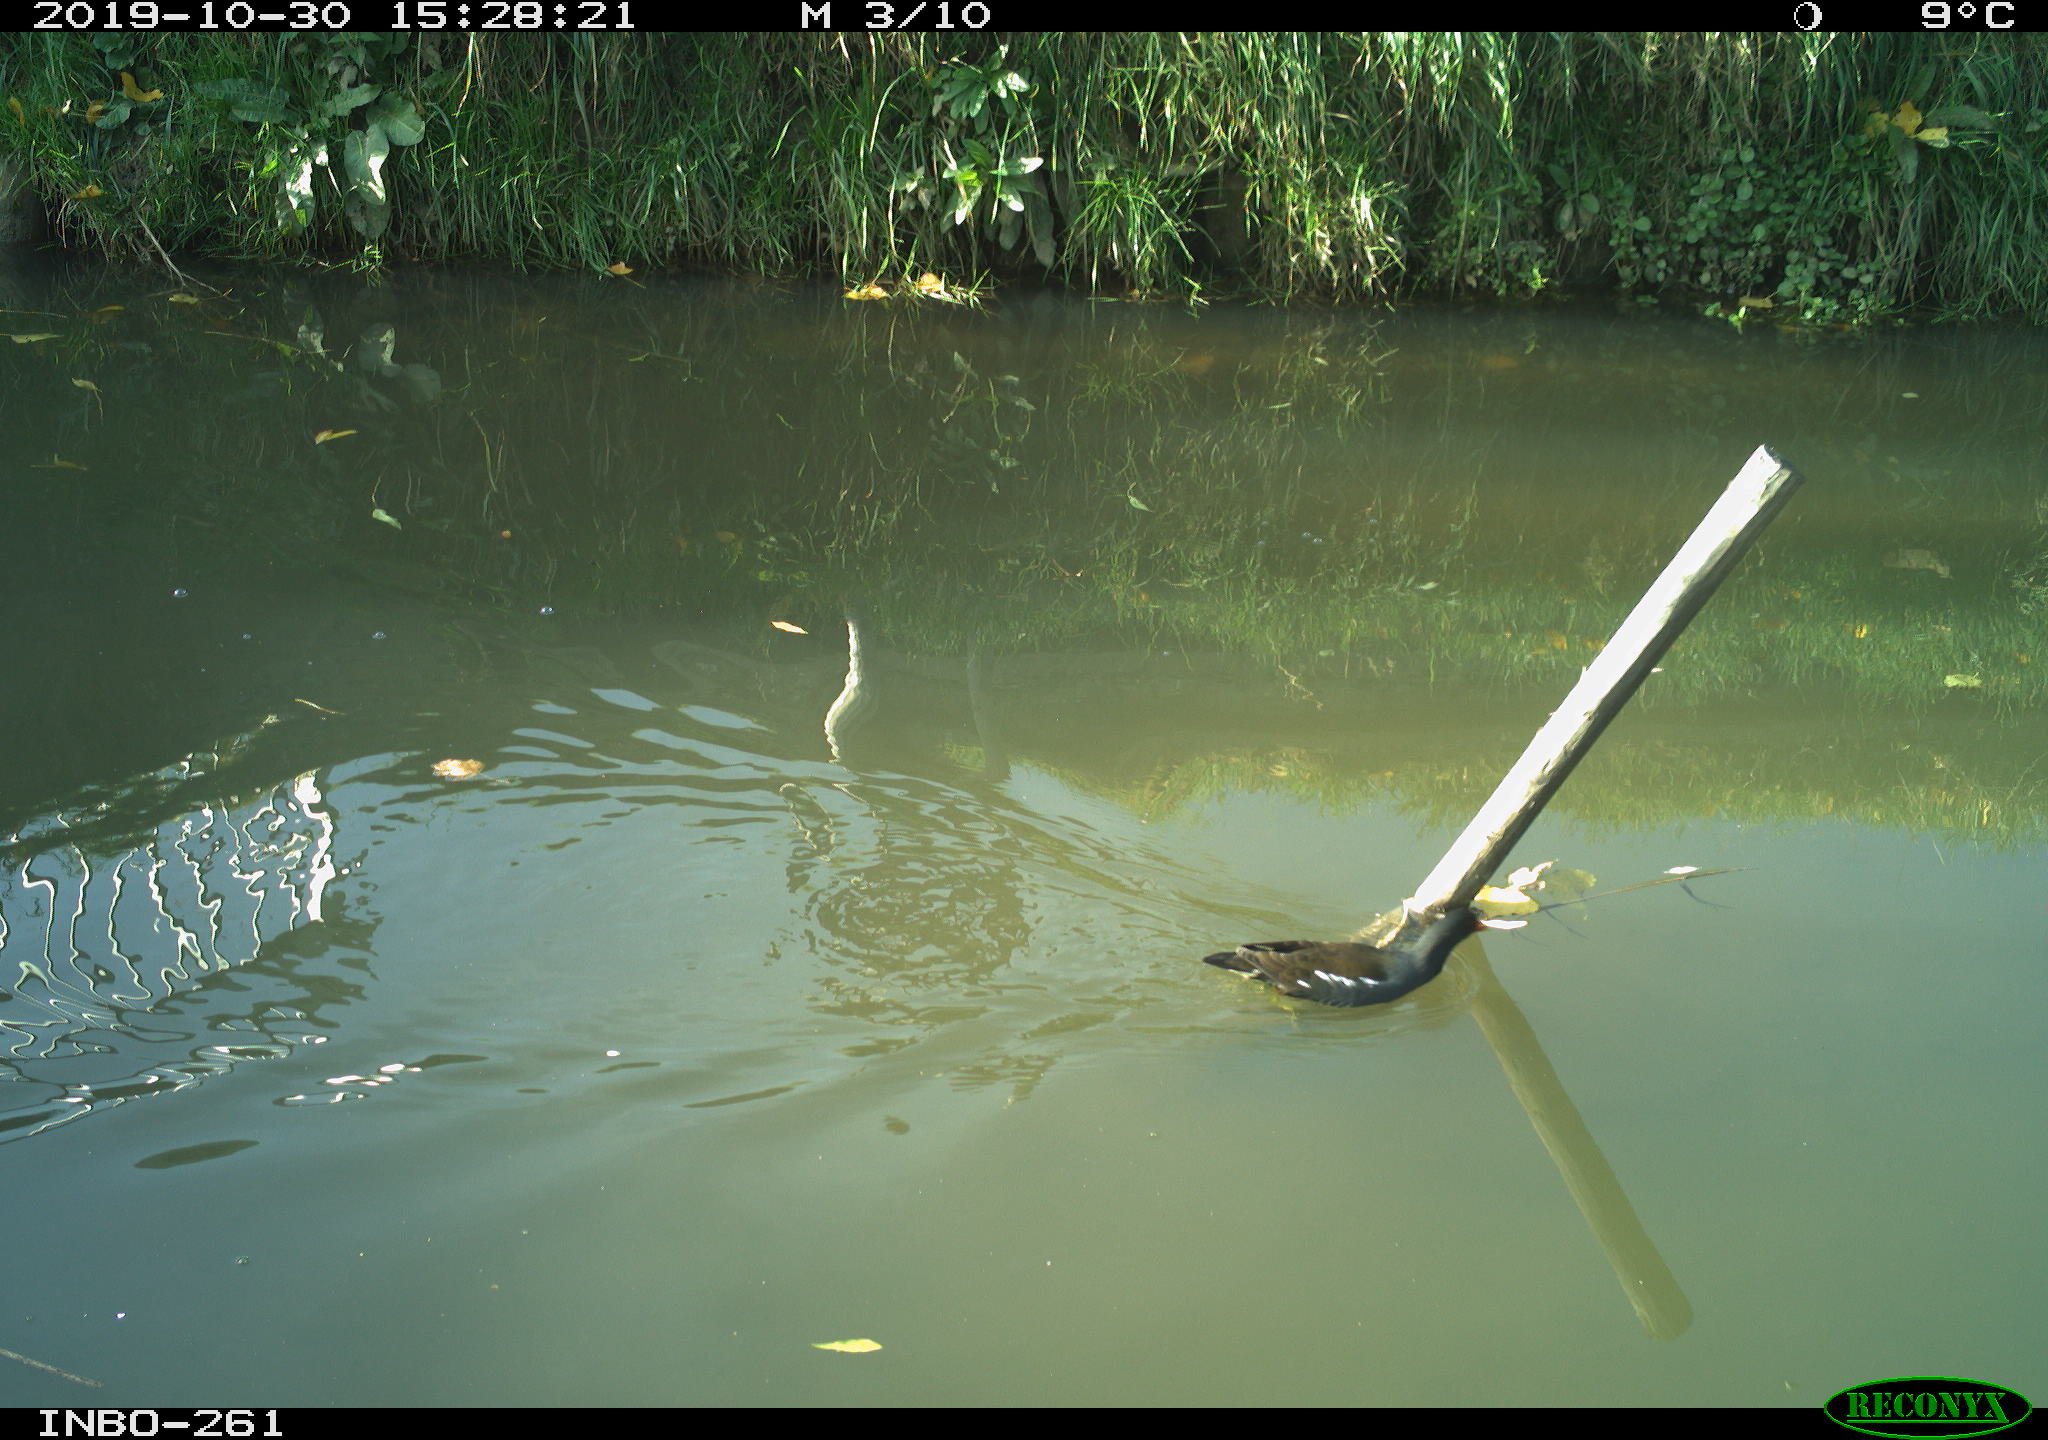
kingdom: Animalia
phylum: Chordata
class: Aves
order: Gruiformes
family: Rallidae
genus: Gallinula
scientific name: Gallinula chloropus
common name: Common moorhen
